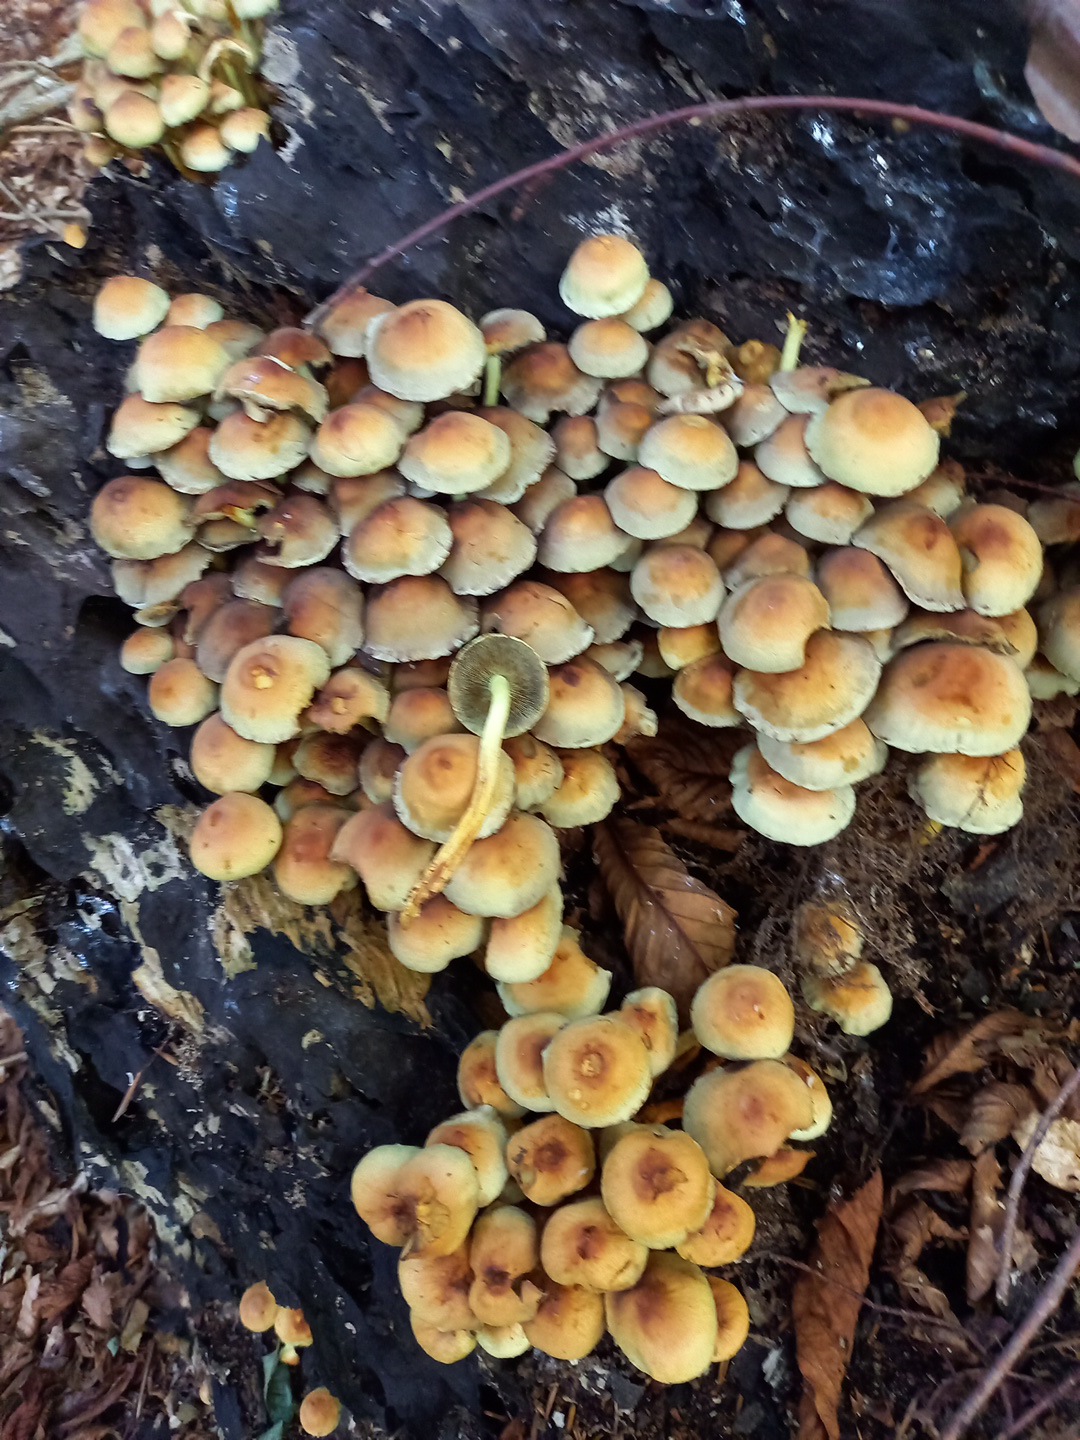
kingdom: Fungi
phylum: Basidiomycota
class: Agaricomycetes
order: Agaricales
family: Strophariaceae
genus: Hypholoma
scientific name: Hypholoma fasciculare
